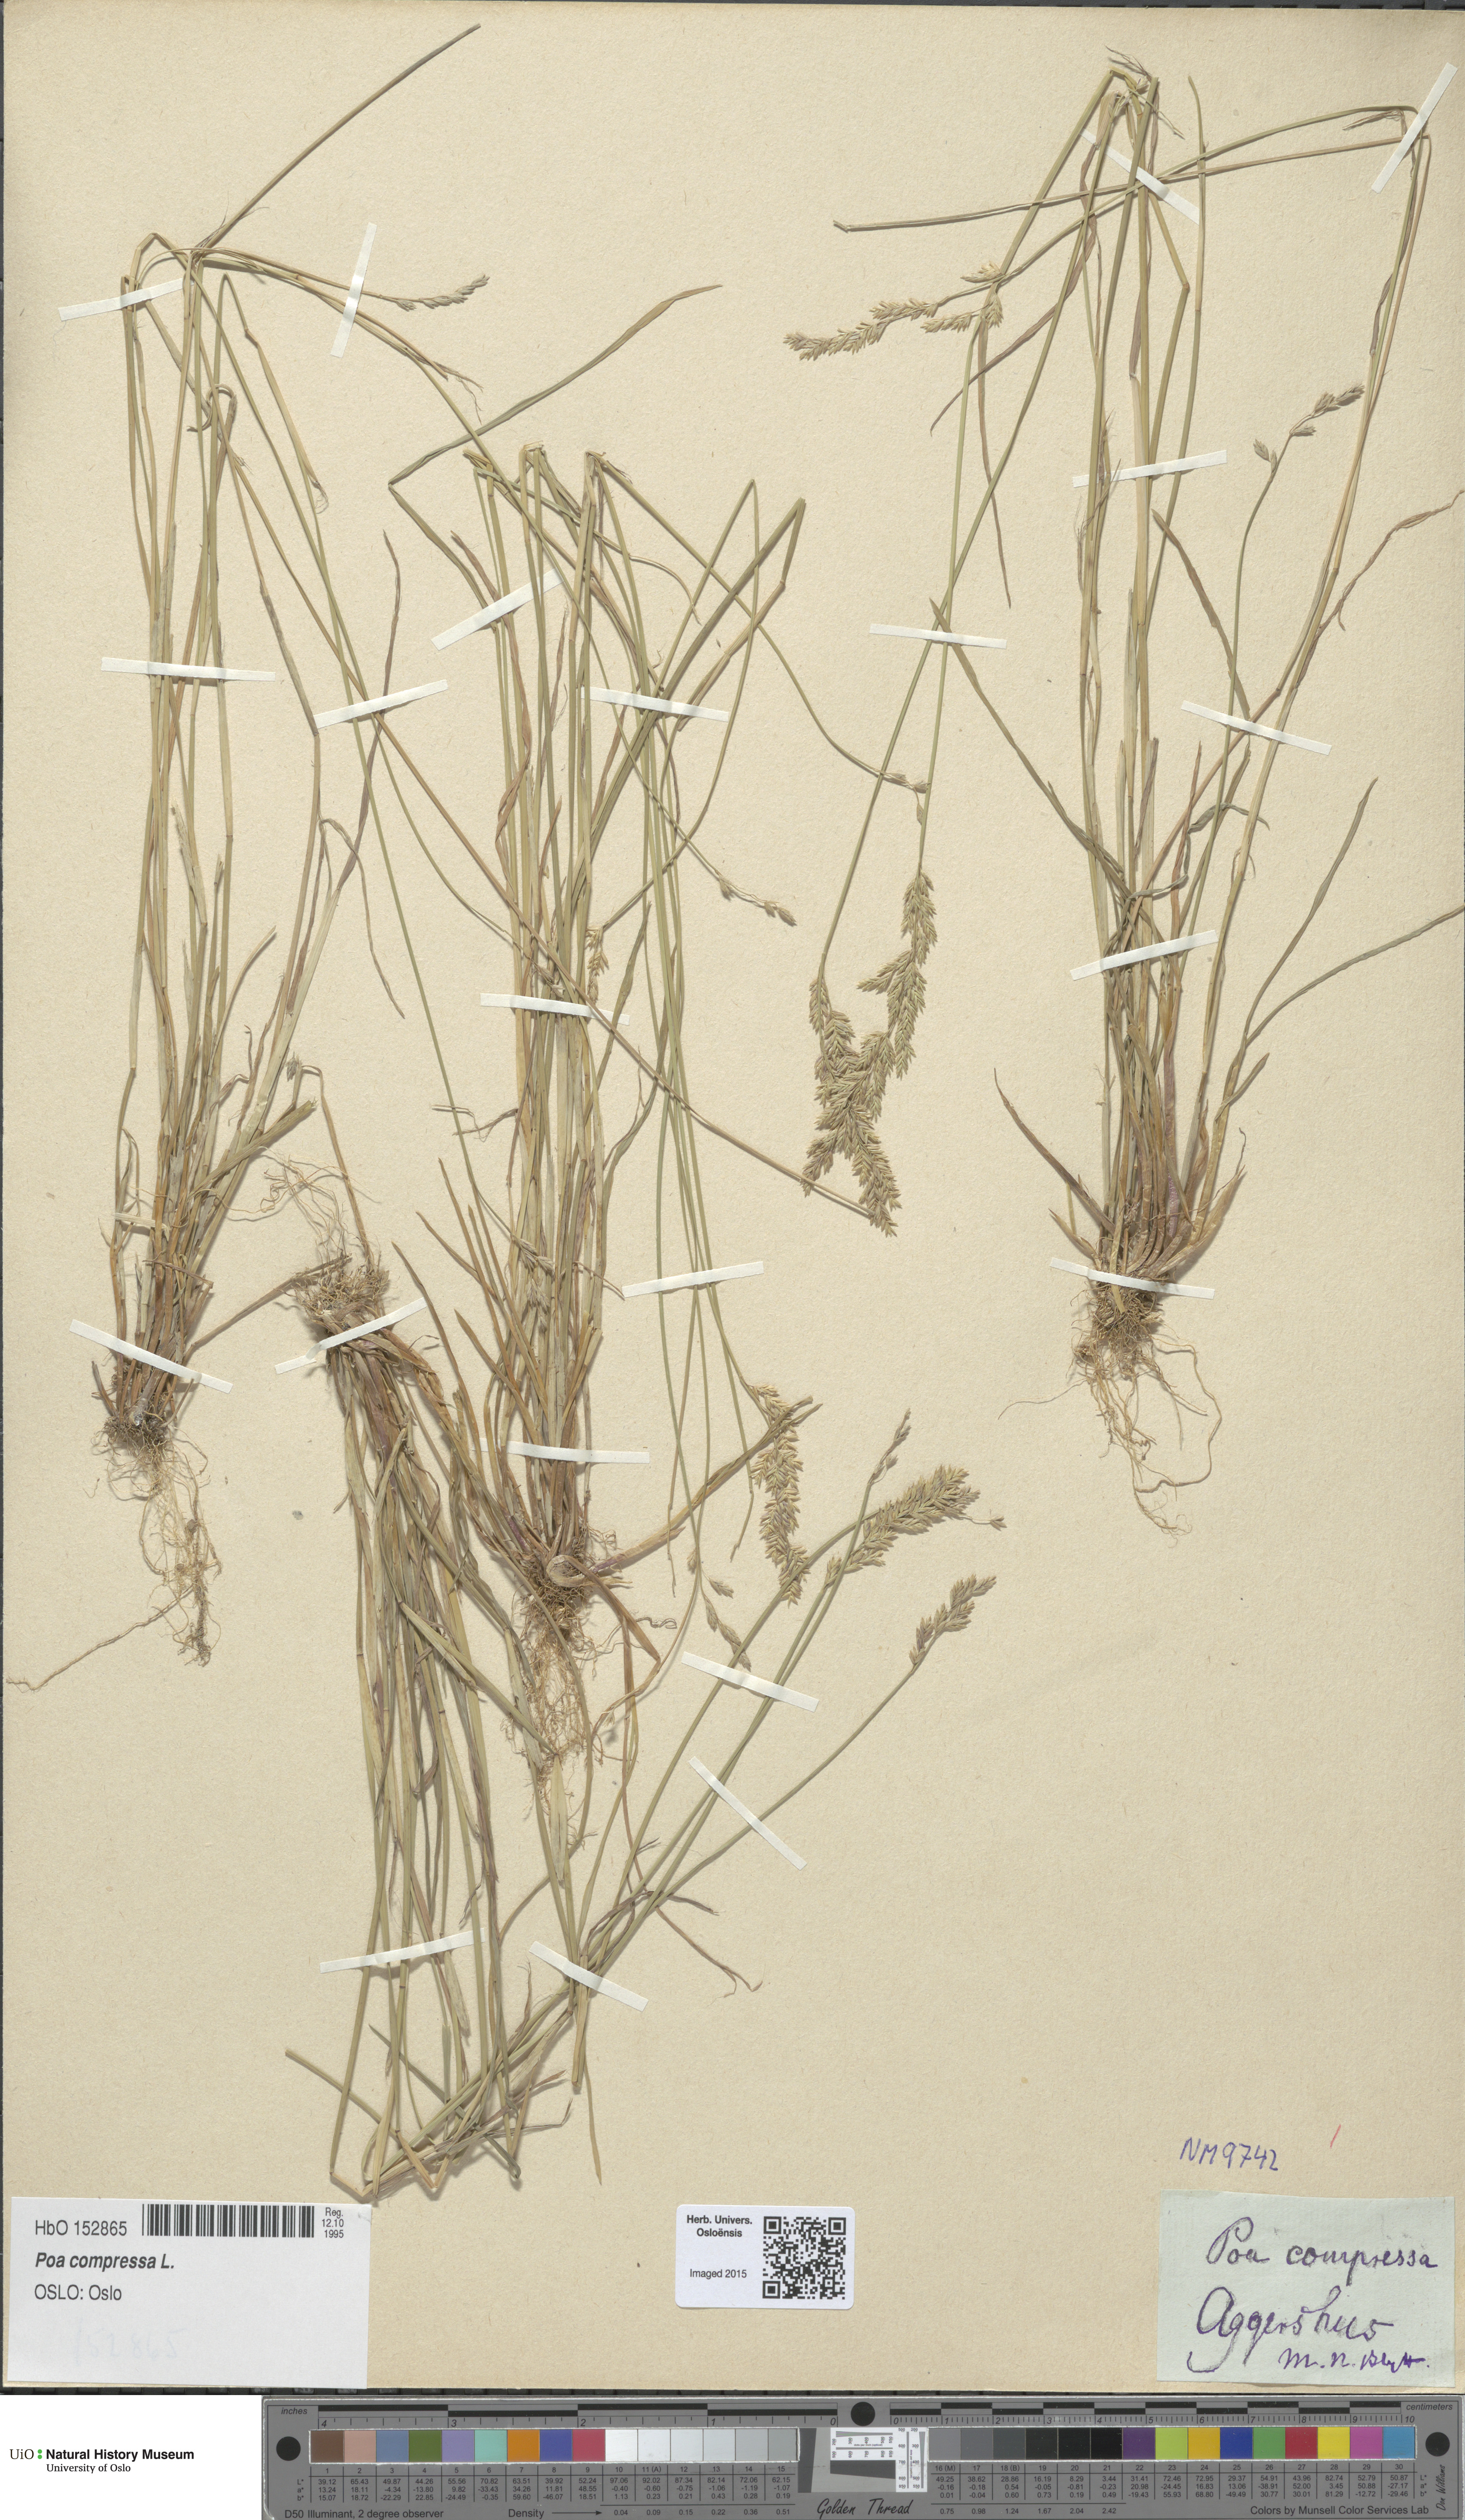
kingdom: Plantae
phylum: Tracheophyta
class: Liliopsida
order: Poales
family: Poaceae
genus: Poa
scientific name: Poa compressa
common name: Canada bluegrass
